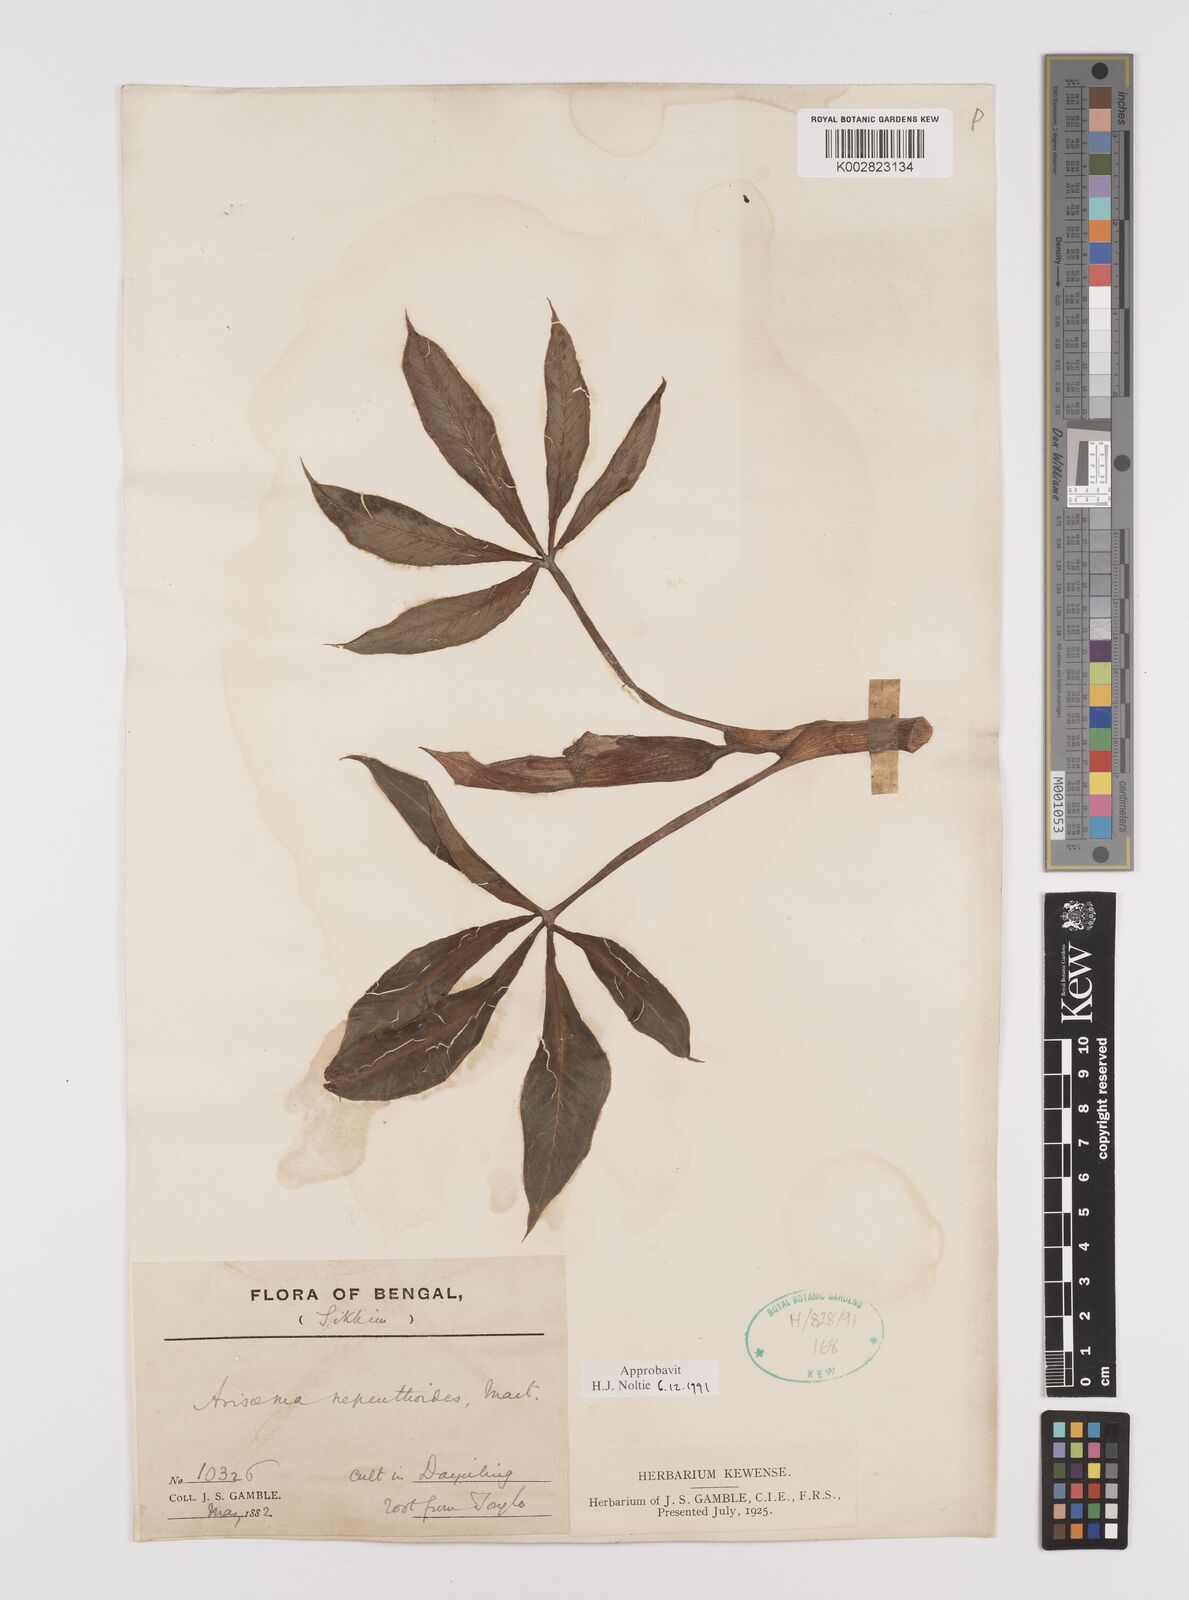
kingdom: Plantae
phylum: Tracheophyta
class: Liliopsida
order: Alismatales
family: Araceae
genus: Arisaema
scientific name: Arisaema nepenthoides
